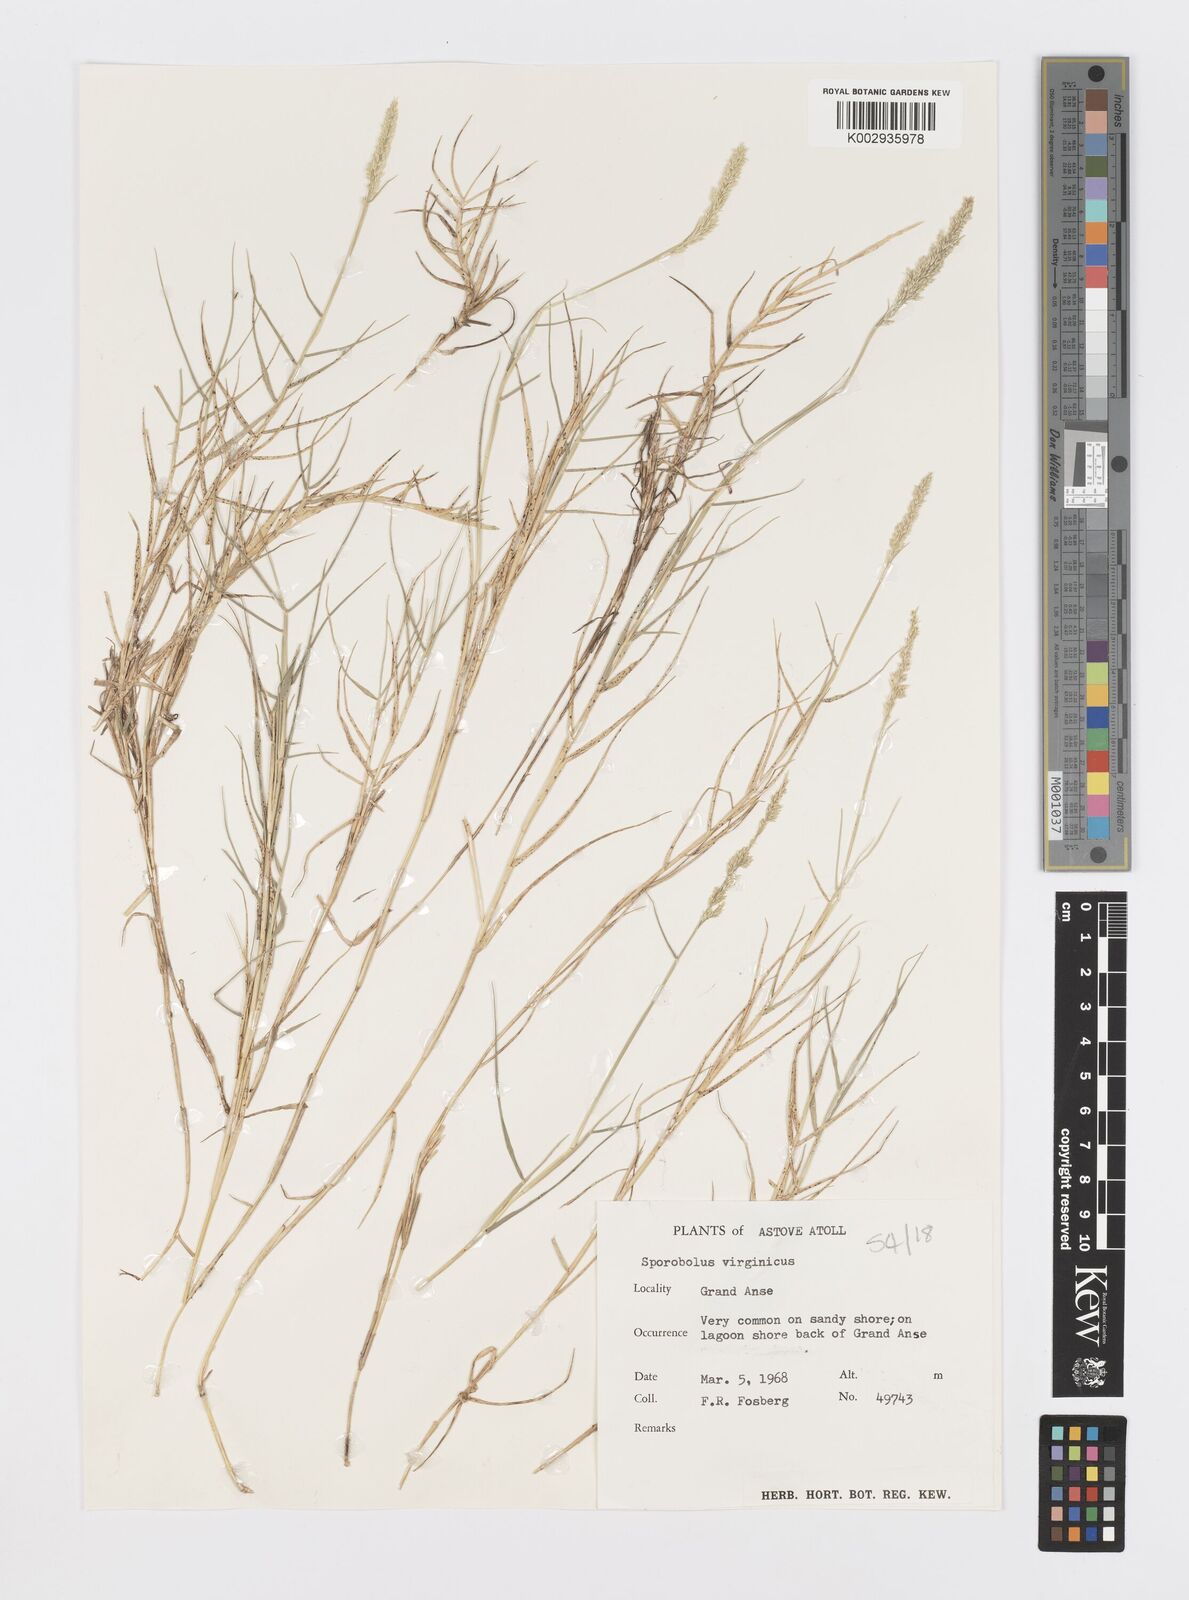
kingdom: Plantae
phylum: Tracheophyta
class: Liliopsida
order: Poales
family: Poaceae
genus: Sporobolus
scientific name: Sporobolus virginicus
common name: Beach dropseed
